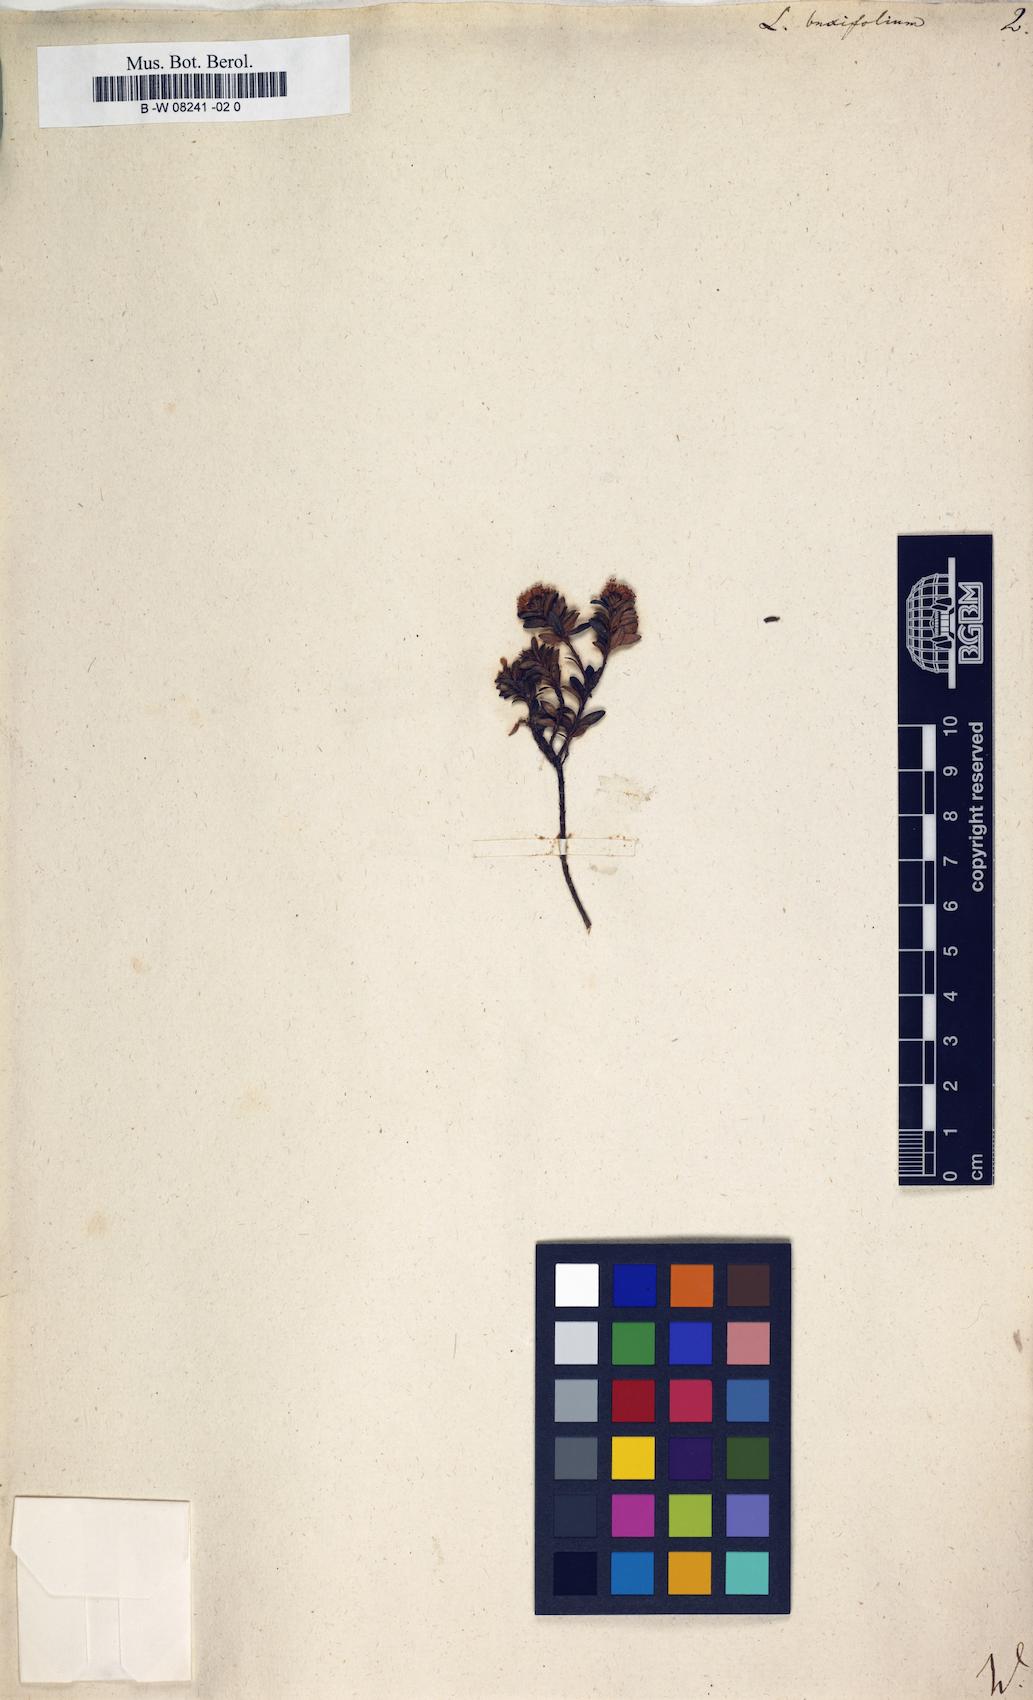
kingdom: Plantae
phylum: Tracheophyta
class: Magnoliopsida
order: Ericales
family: Ericaceae
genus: Kalmia
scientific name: Kalmia buxifolia
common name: Sandmyrtle
